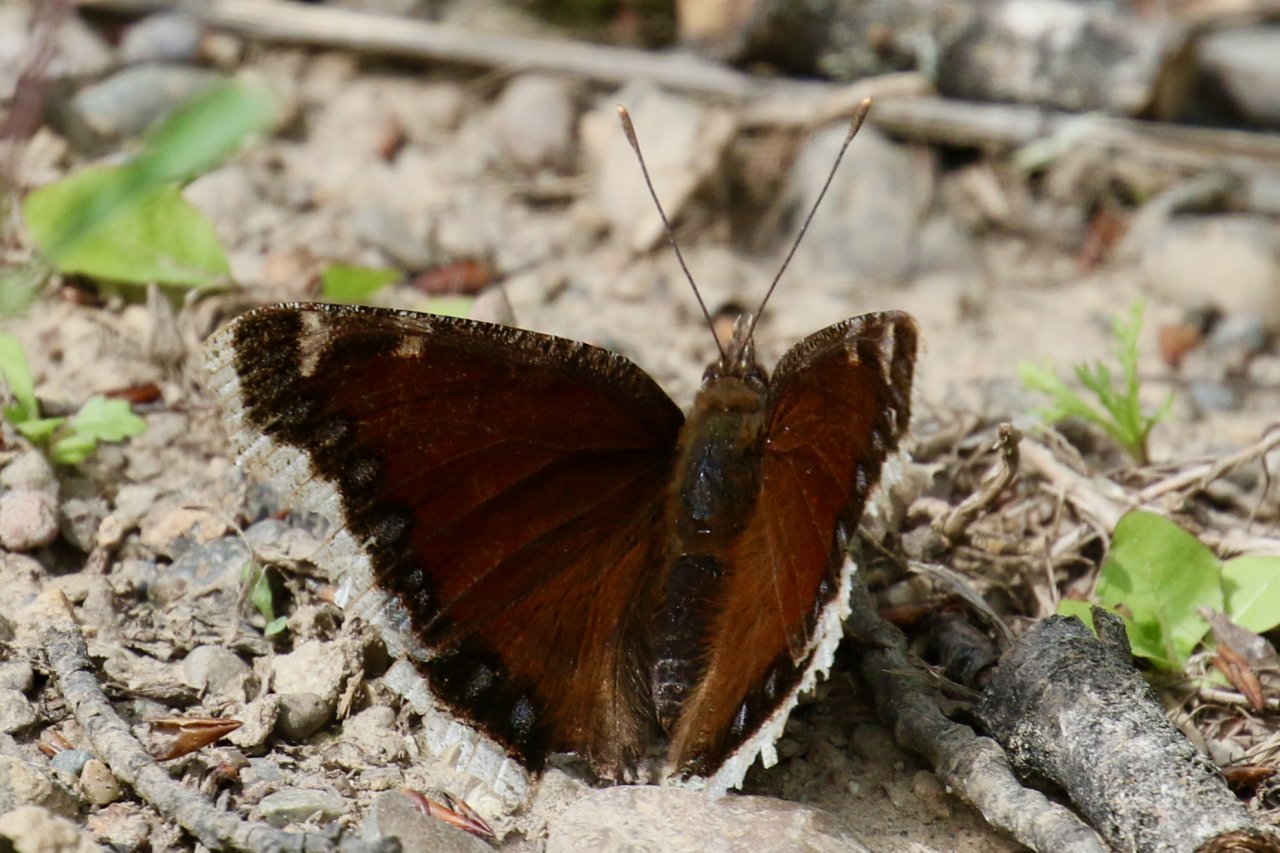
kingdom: Animalia
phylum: Arthropoda
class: Insecta
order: Lepidoptera
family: Nymphalidae
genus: Nymphalis
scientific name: Nymphalis antiopa
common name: Mourning Cloak
